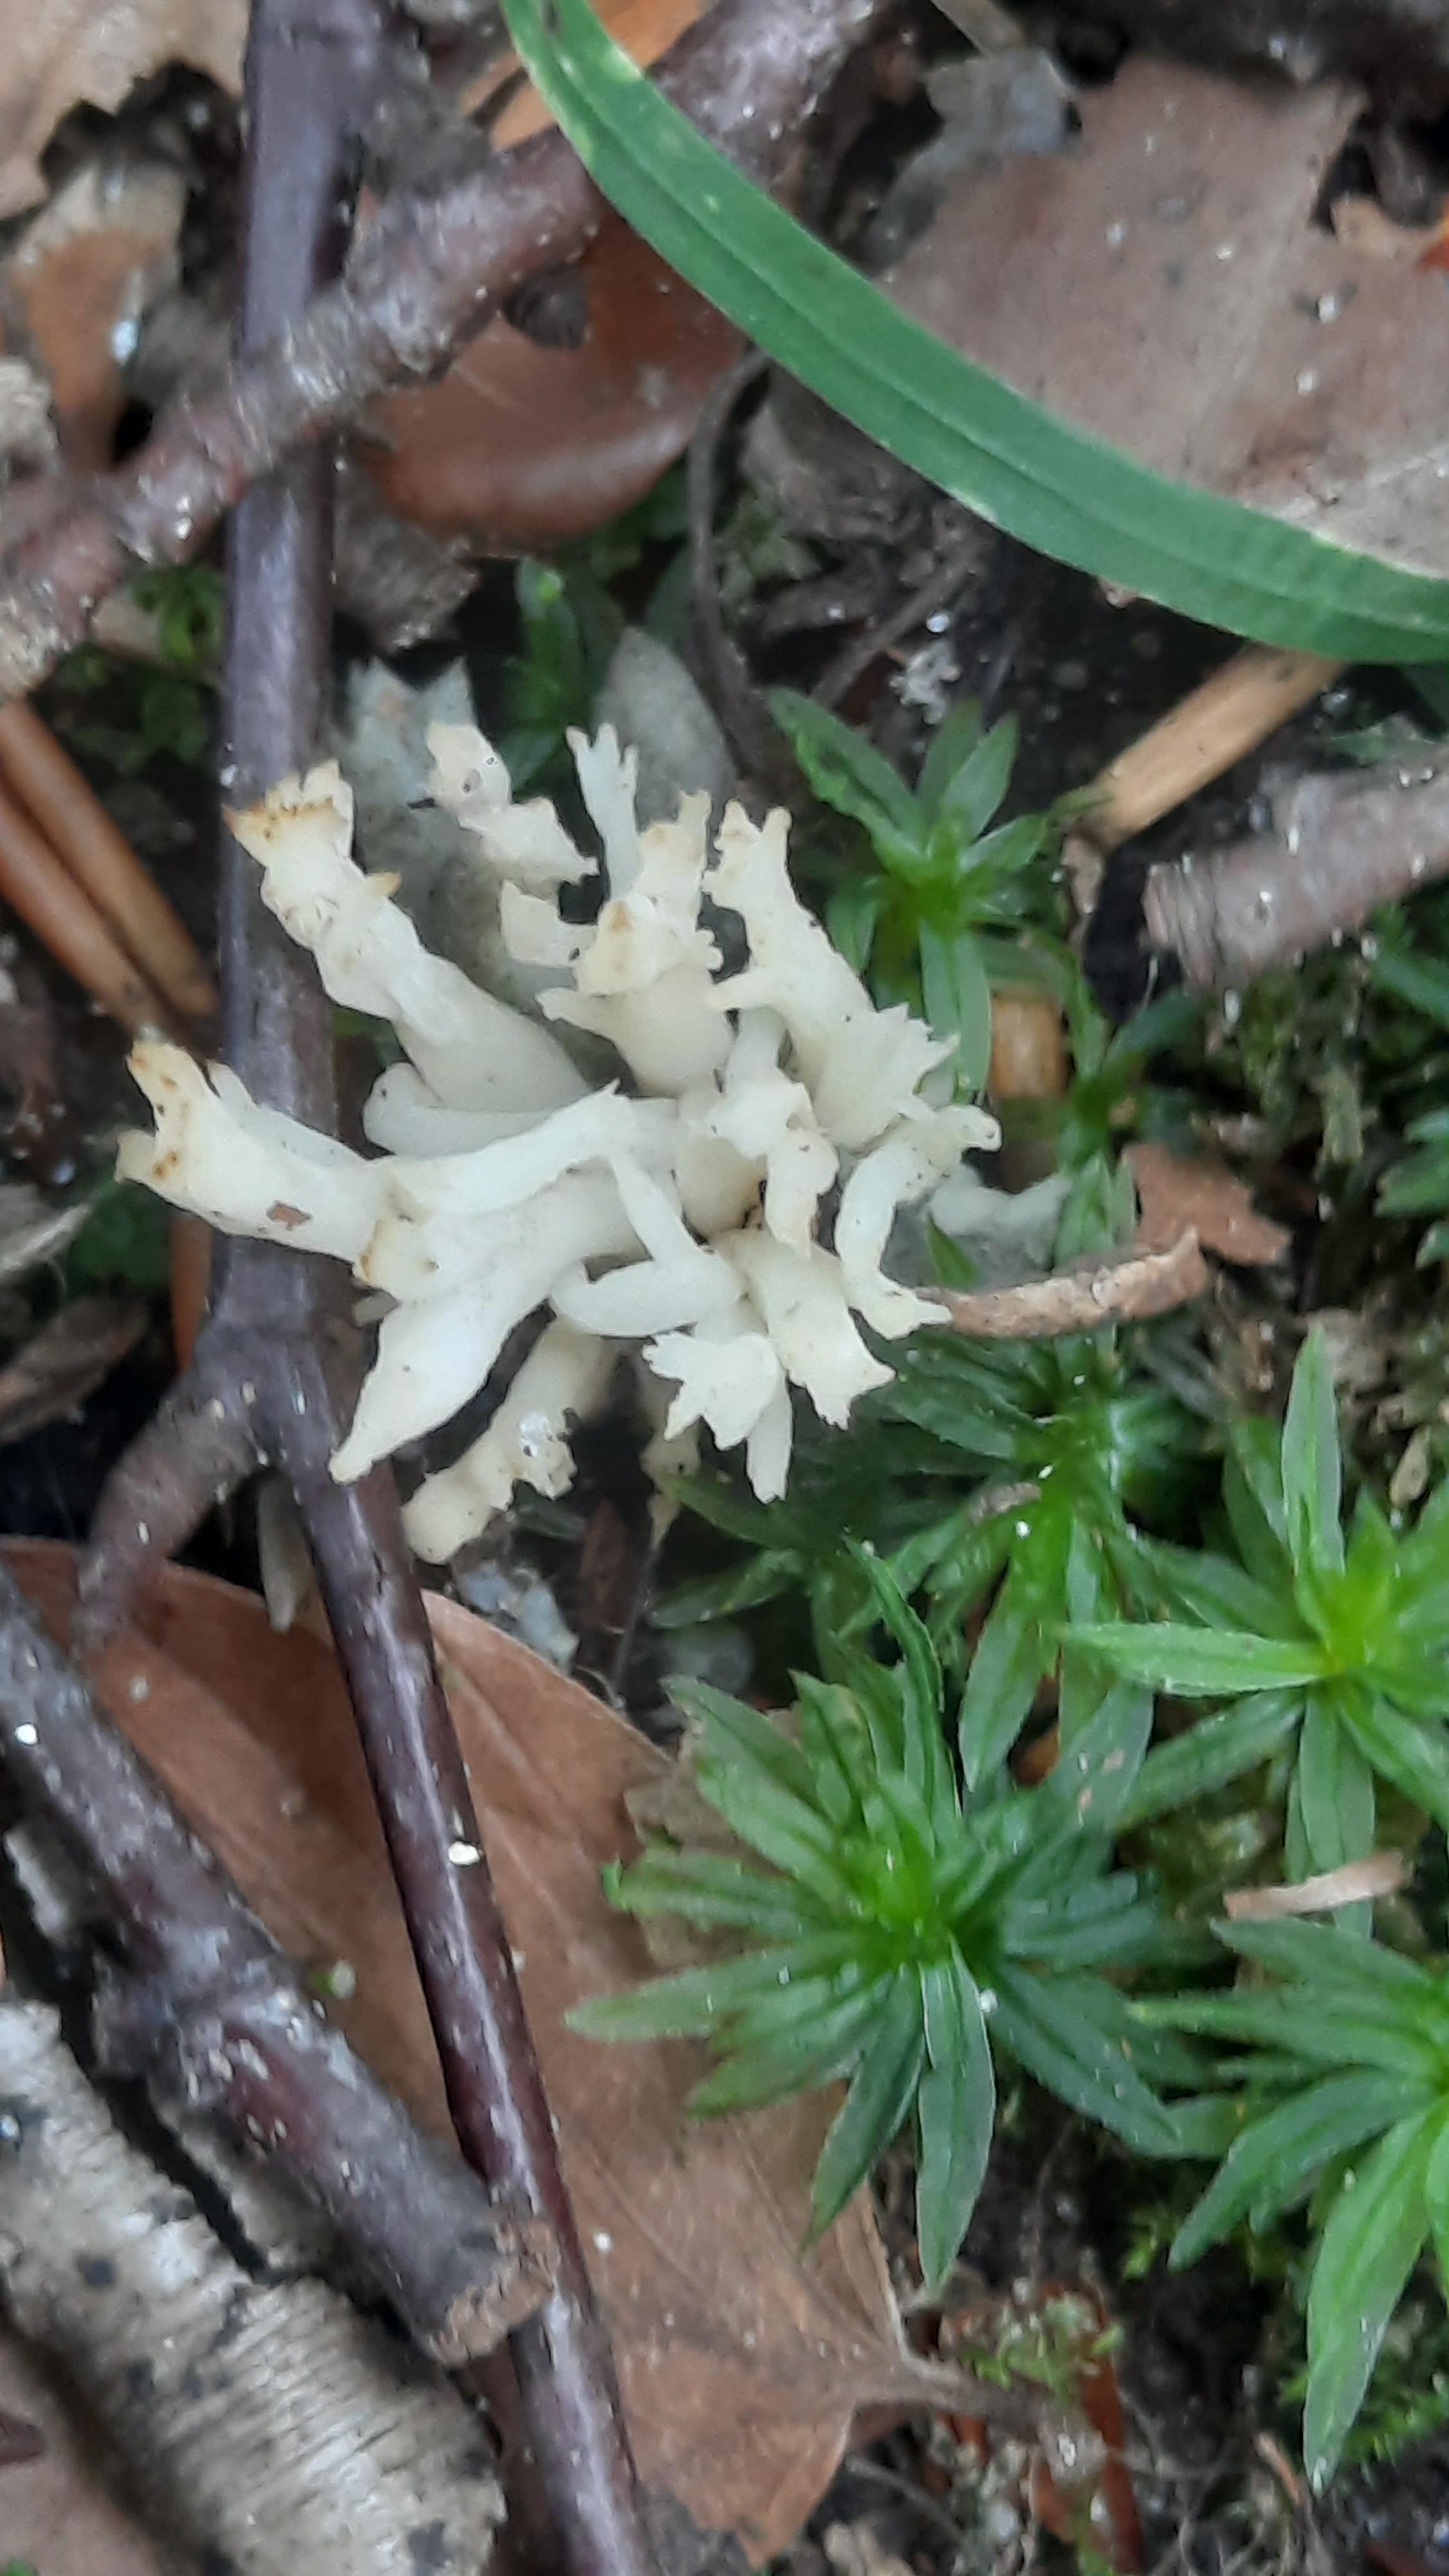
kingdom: Fungi
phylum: Basidiomycota
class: Agaricomycetes
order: Cantharellales
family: Hydnaceae
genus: Clavulina
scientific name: Clavulina
